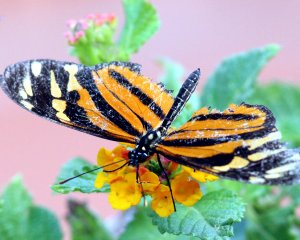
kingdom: Animalia
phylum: Arthropoda
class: Insecta
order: Lepidoptera
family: Nymphalidae
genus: Eueides
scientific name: Eueides isabella
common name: Isabella's Heliconian
